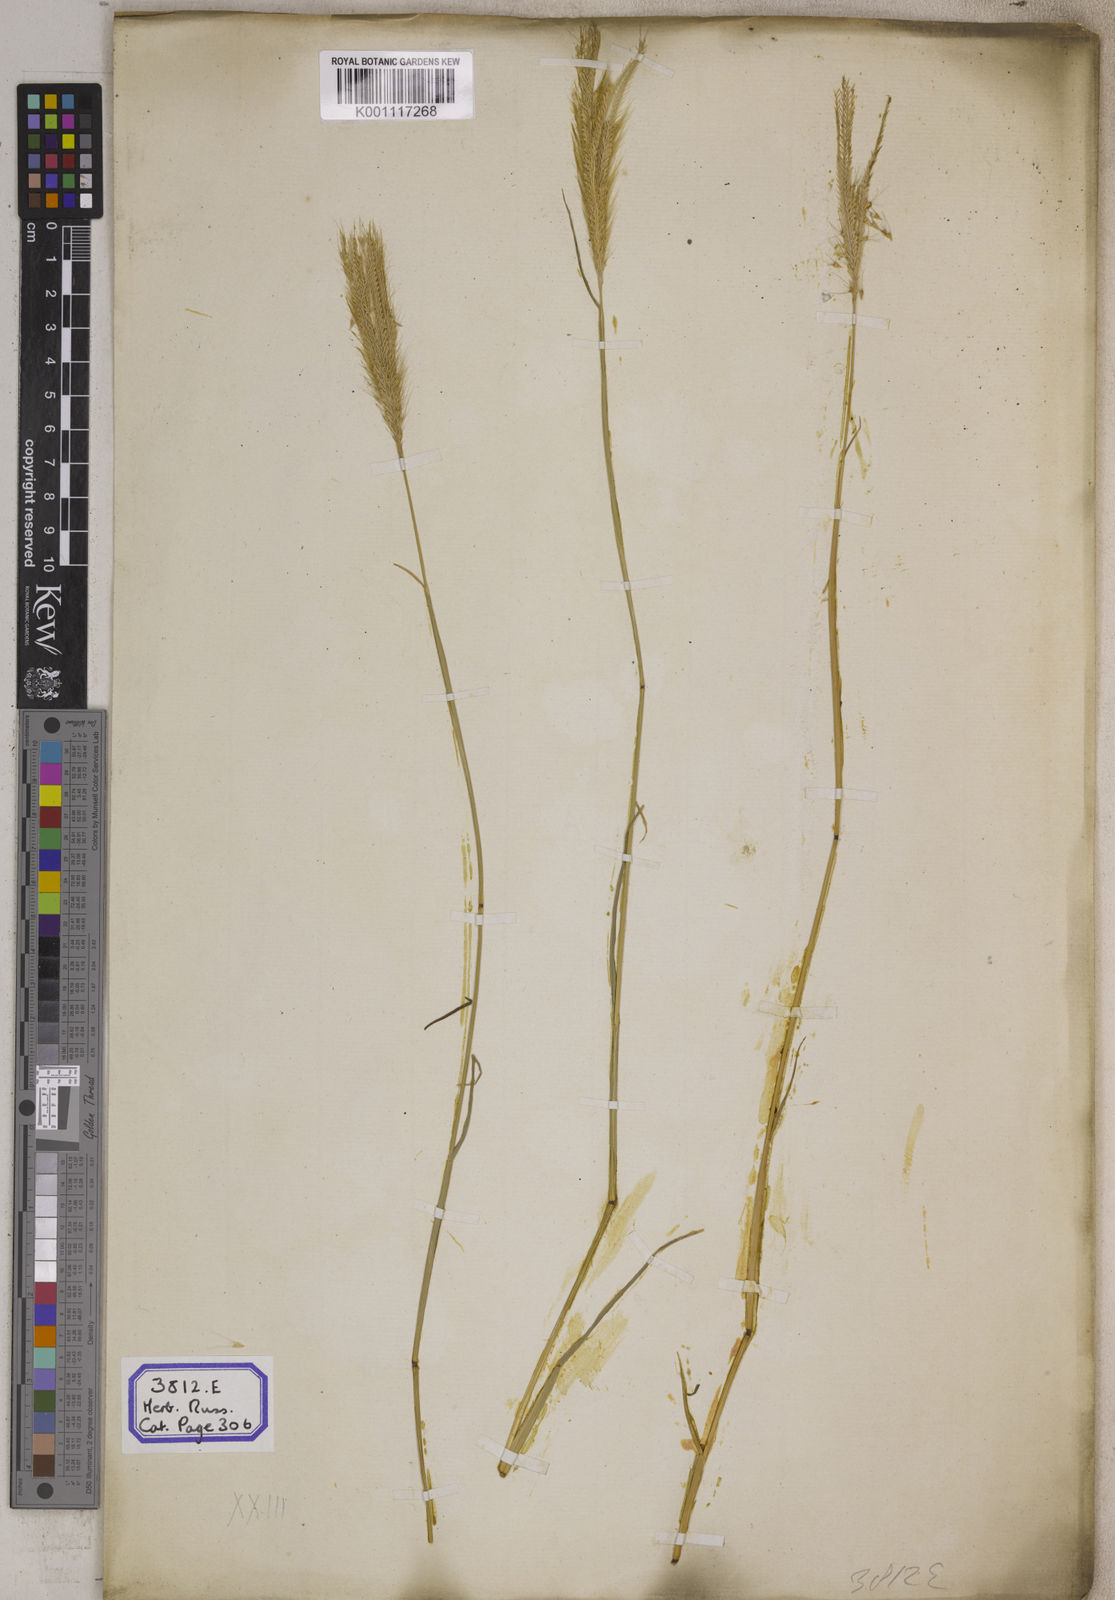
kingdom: Plantae
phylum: Tracheophyta
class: Liliopsida
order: Poales
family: Poaceae
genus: Chloris
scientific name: Chloris
